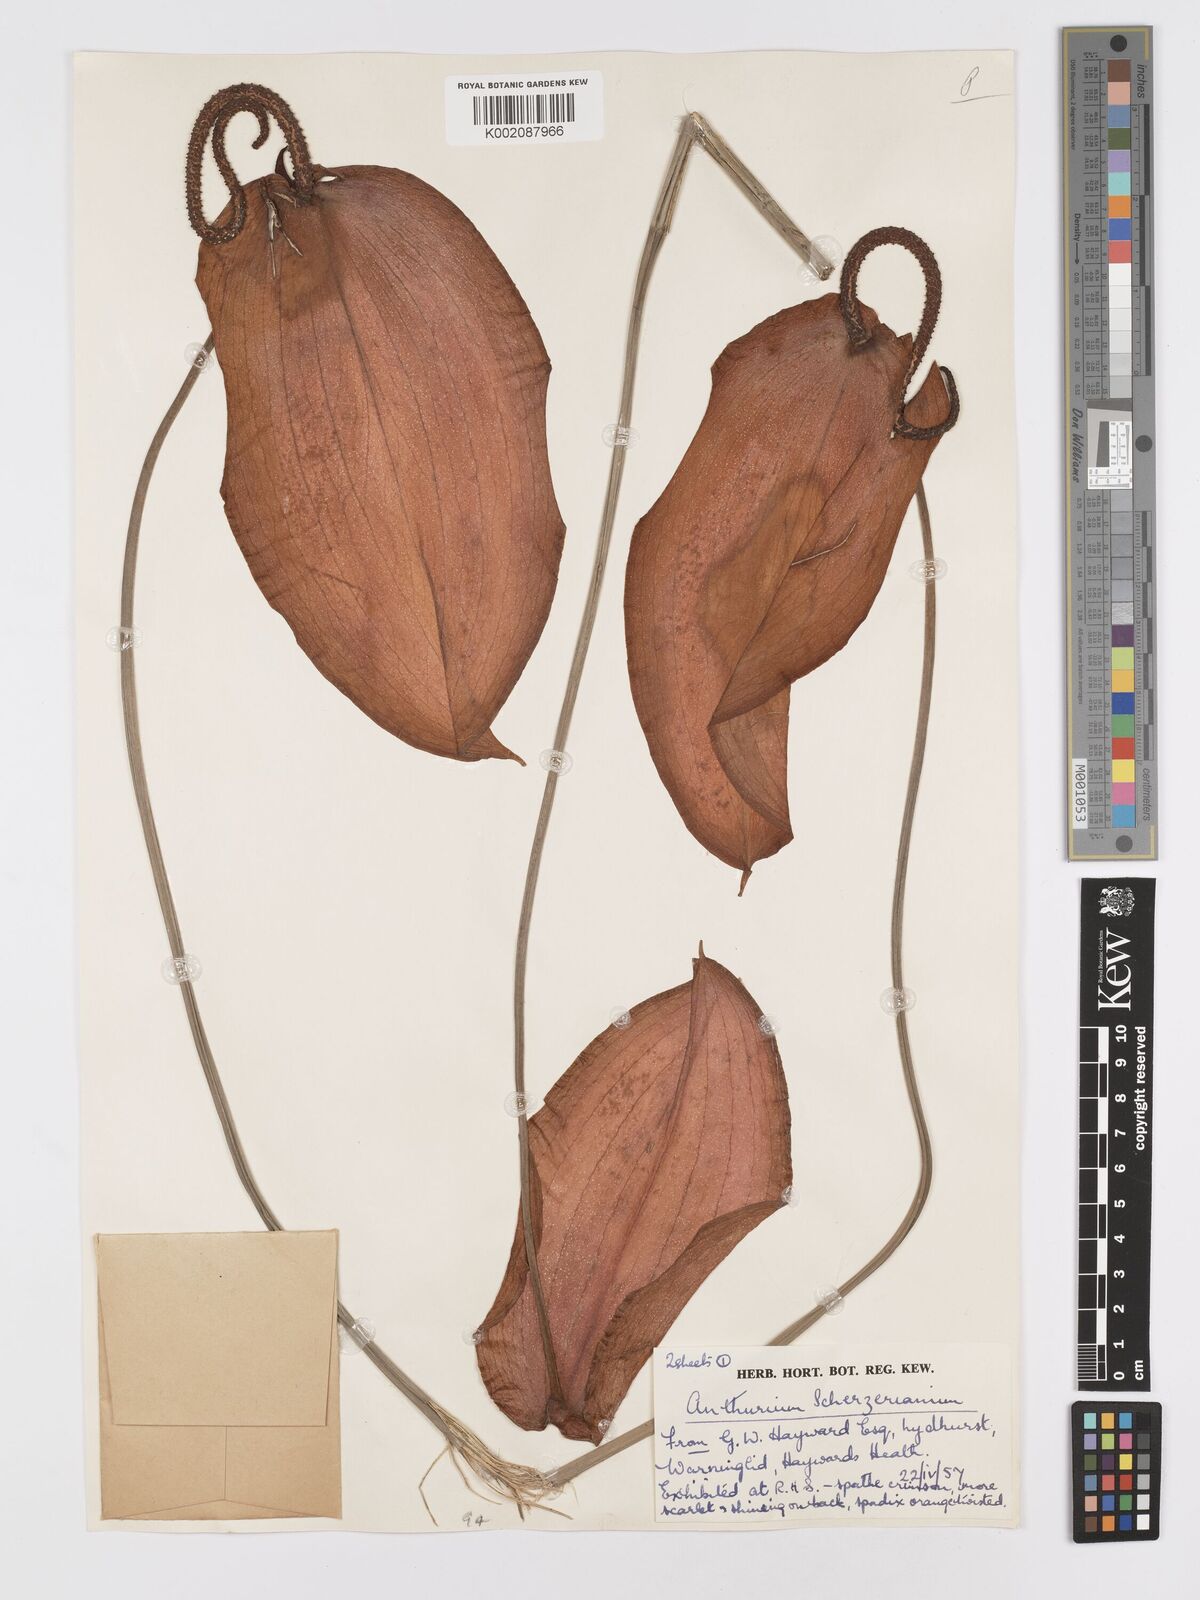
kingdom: Plantae
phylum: Tracheophyta
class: Liliopsida
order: Alismatales
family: Araceae
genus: Anthurium
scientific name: Anthurium scherzerianum
